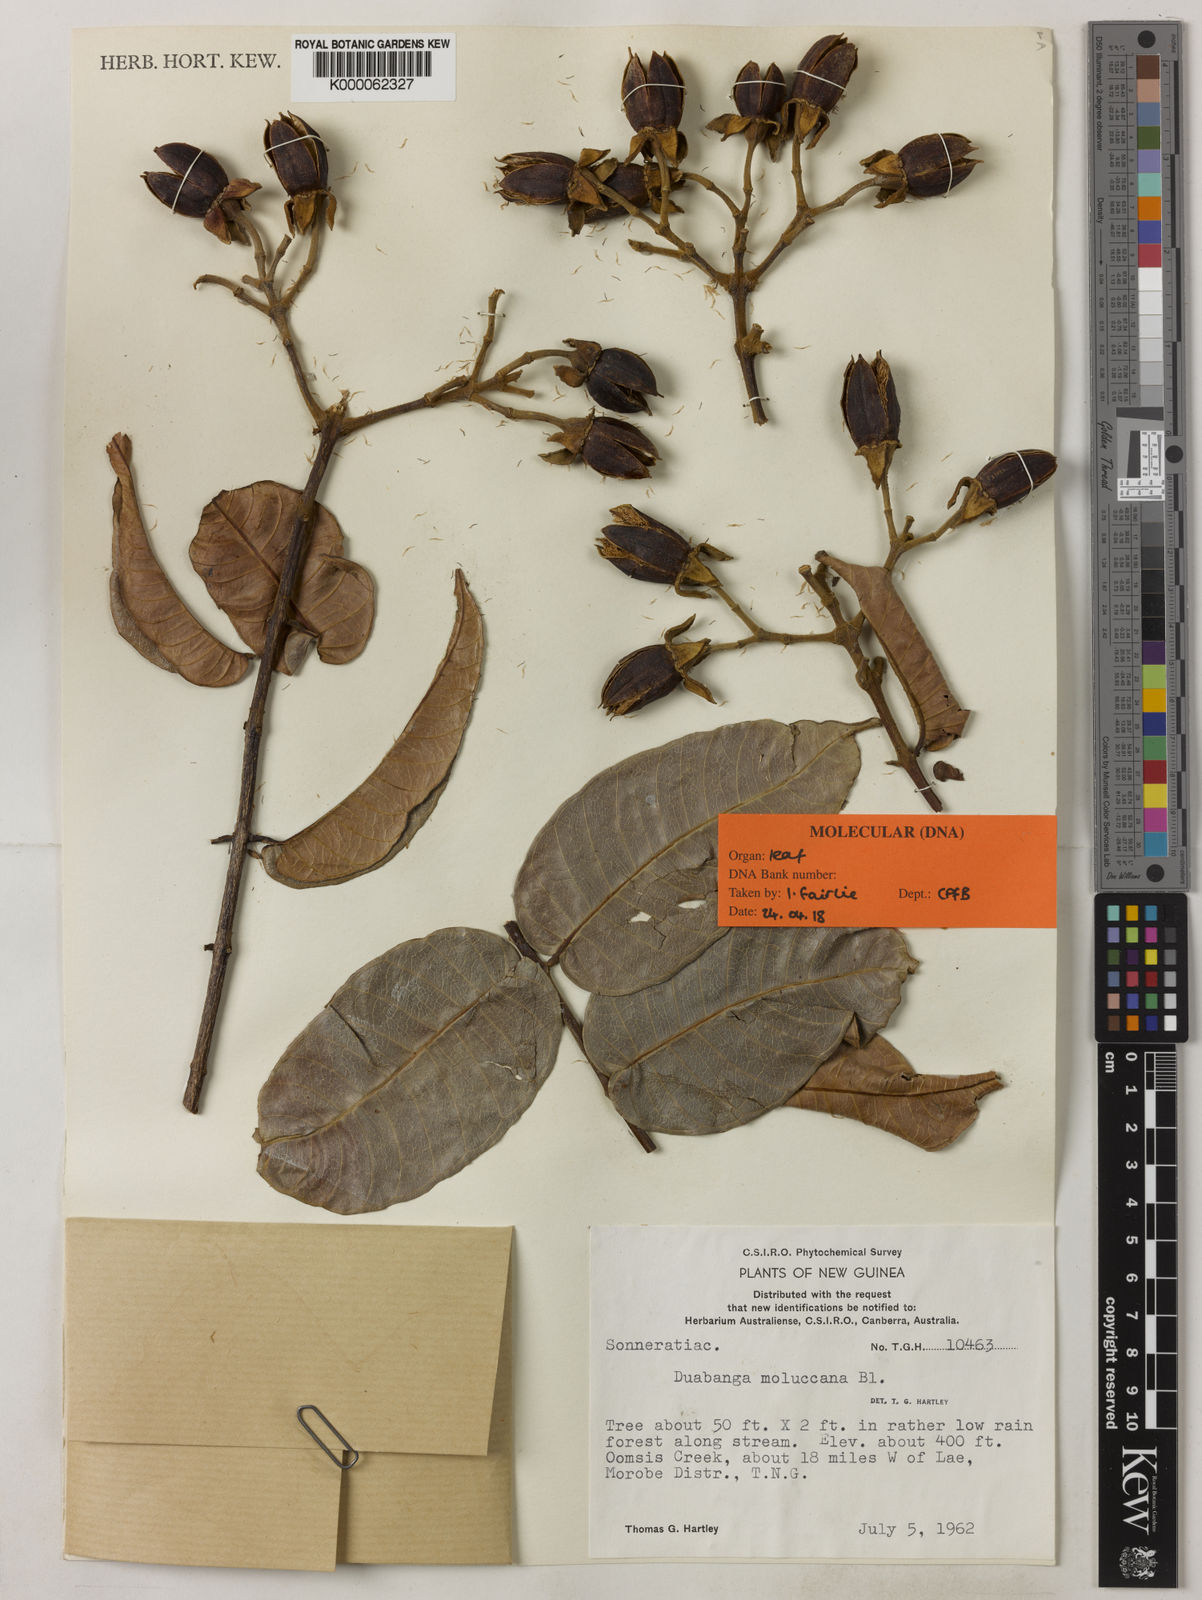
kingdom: Plantae
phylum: Tracheophyta
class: Magnoliopsida
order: Myrtales
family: Lythraceae
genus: Duabanga
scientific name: Duabanga moluccana
